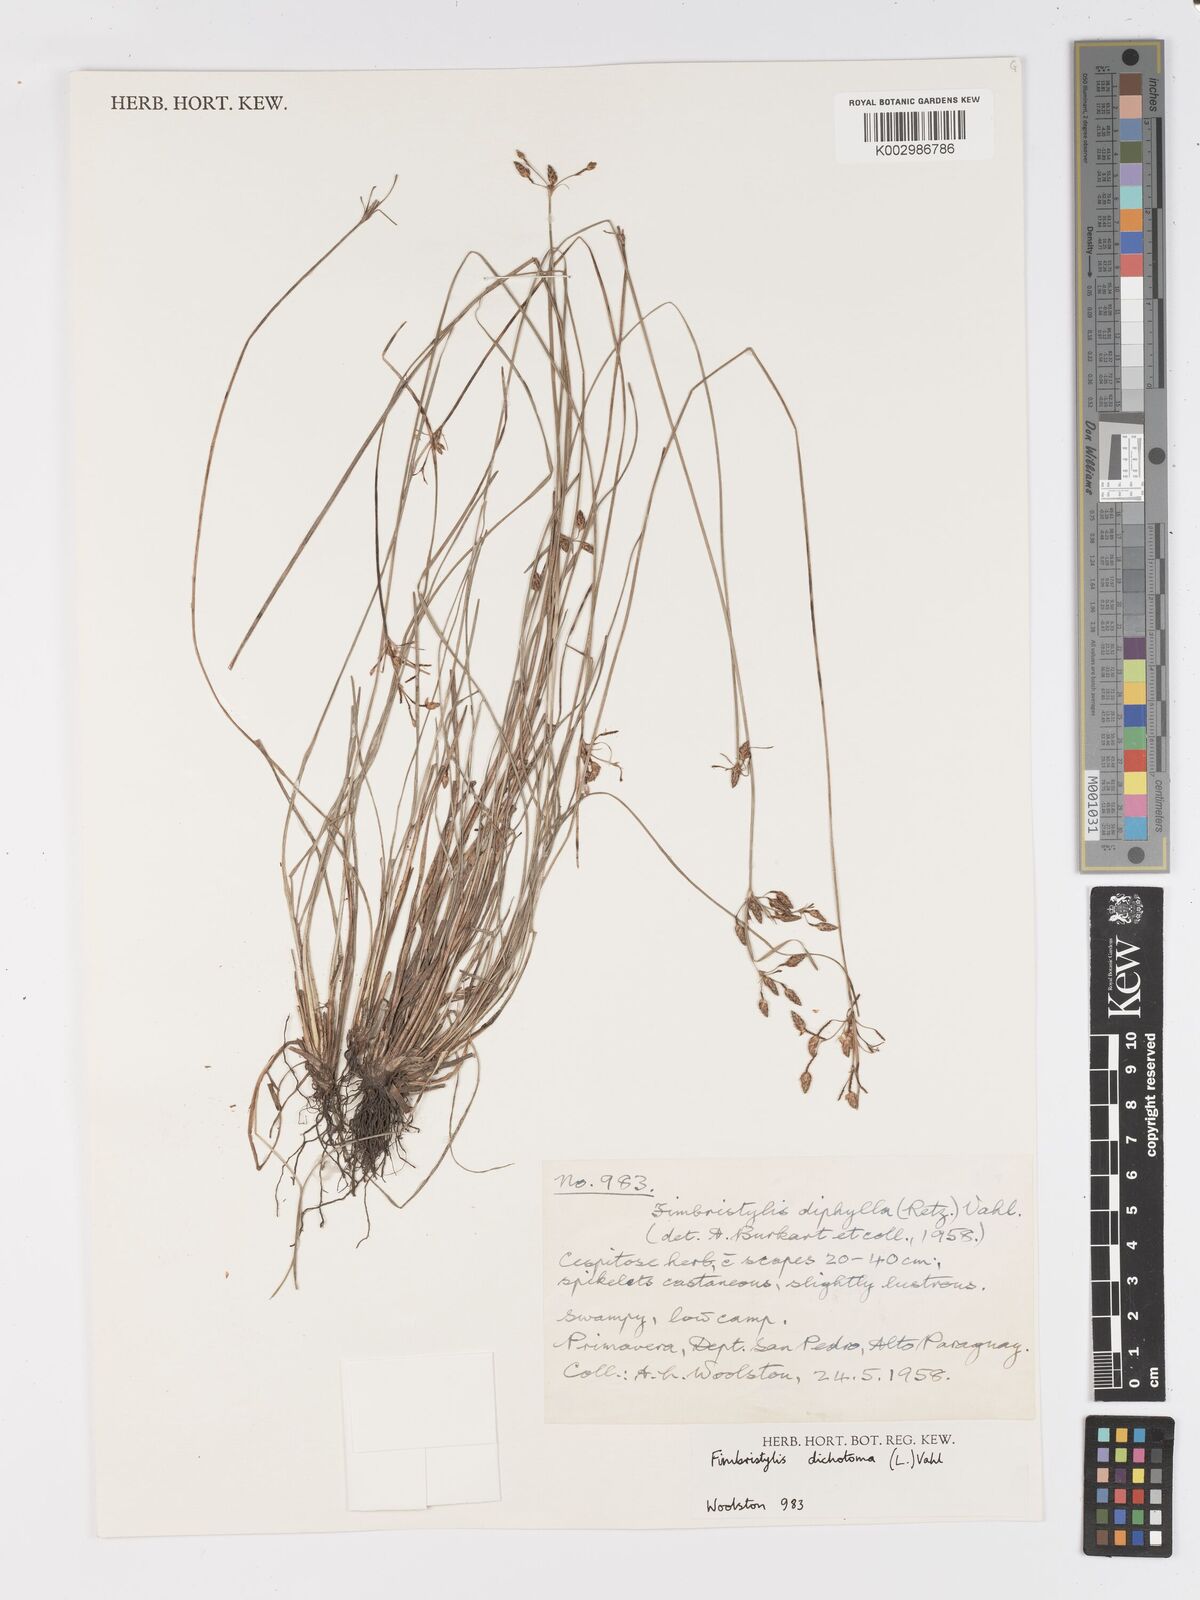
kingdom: Plantae
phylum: Tracheophyta
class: Liliopsida
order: Poales
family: Cyperaceae
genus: Fimbristylis
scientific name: Fimbristylis dichotoma
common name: Forked fimbry
